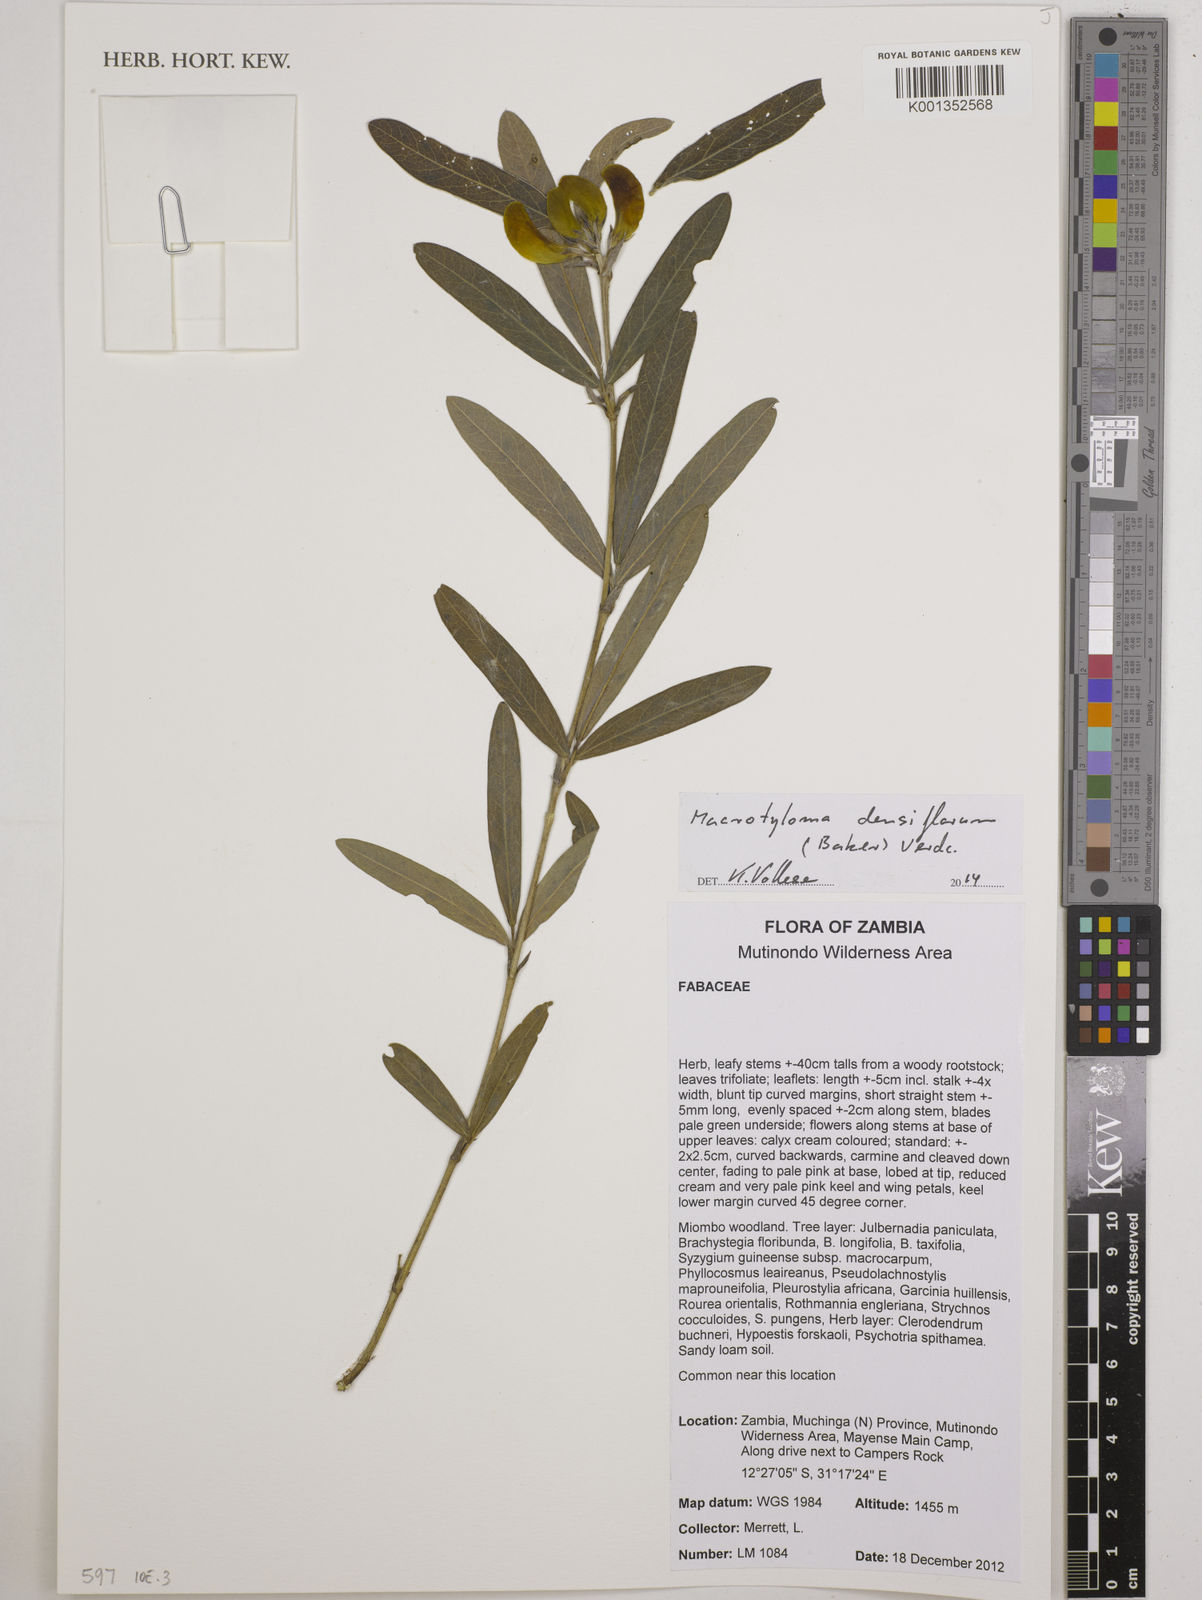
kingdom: Plantae
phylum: Tracheophyta
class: Magnoliopsida
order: Fabales
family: Fabaceae
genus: Macrotyloma
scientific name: Macrotyloma densiflorum
